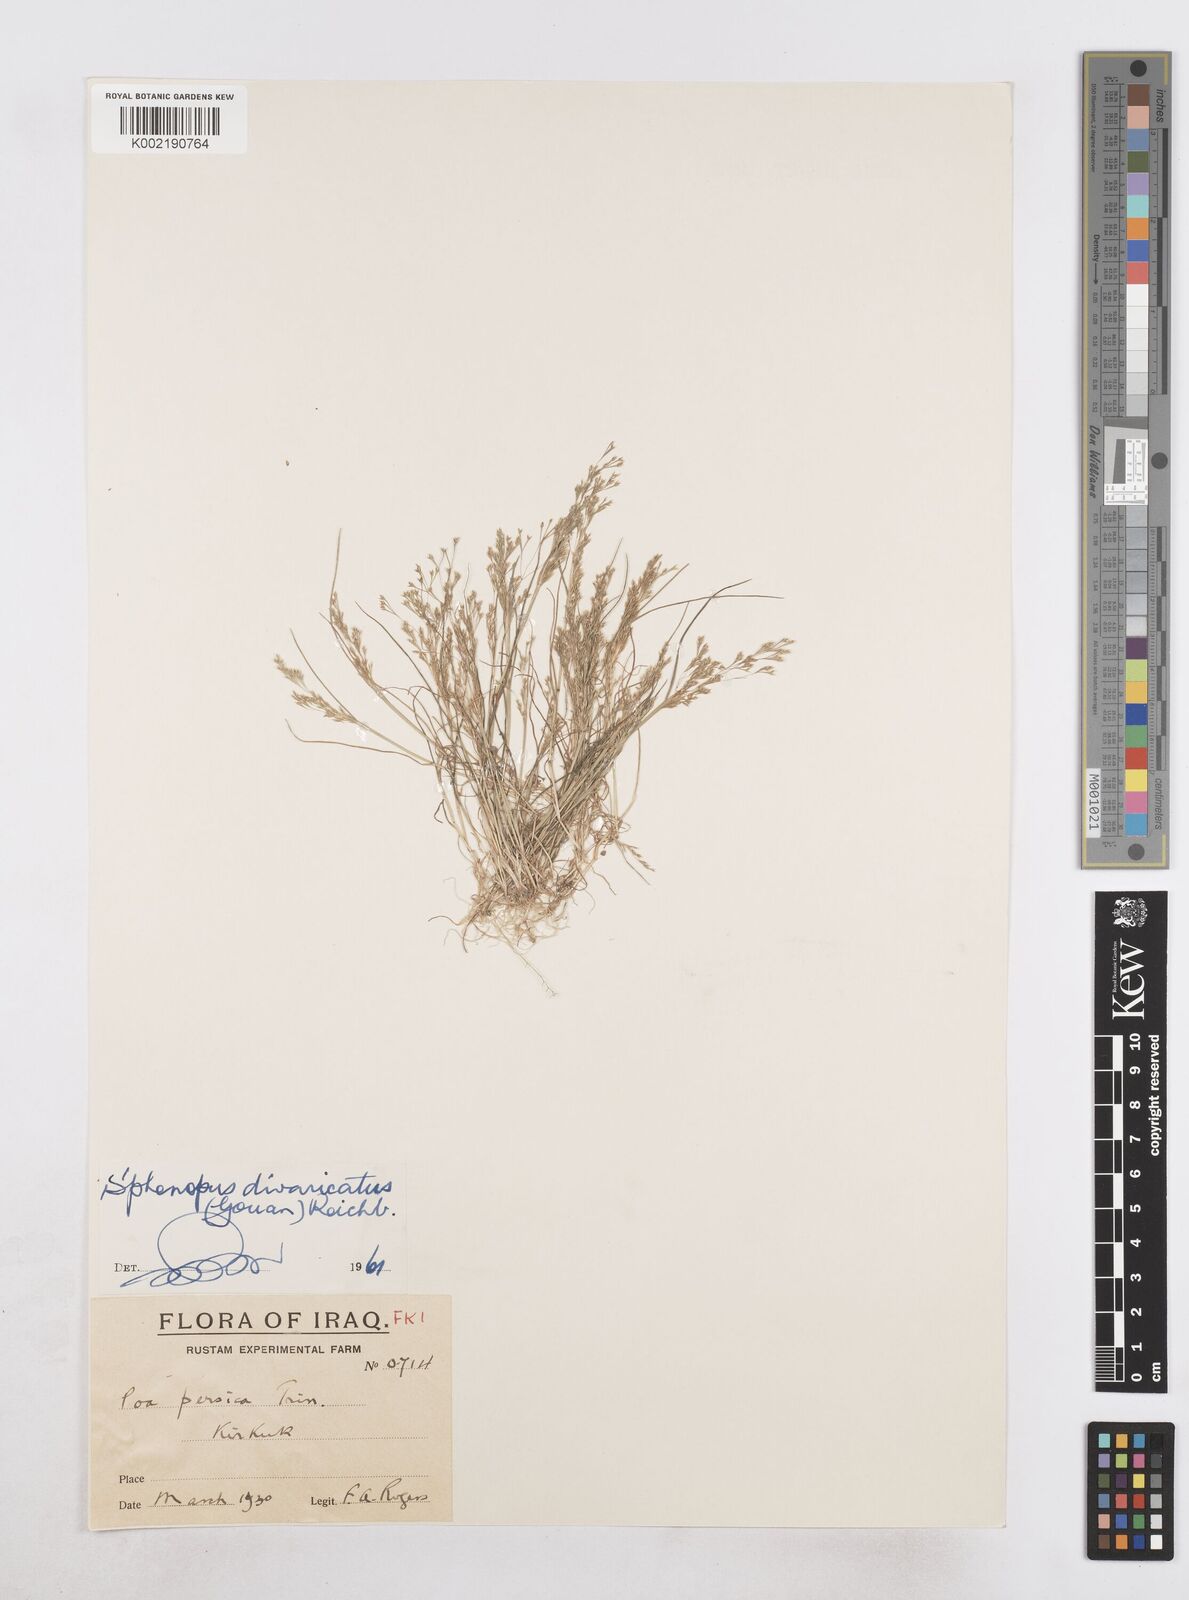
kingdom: Plantae
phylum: Tracheophyta
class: Liliopsida
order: Poales
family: Poaceae
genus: Sphenopus
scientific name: Sphenopus divaricatus
